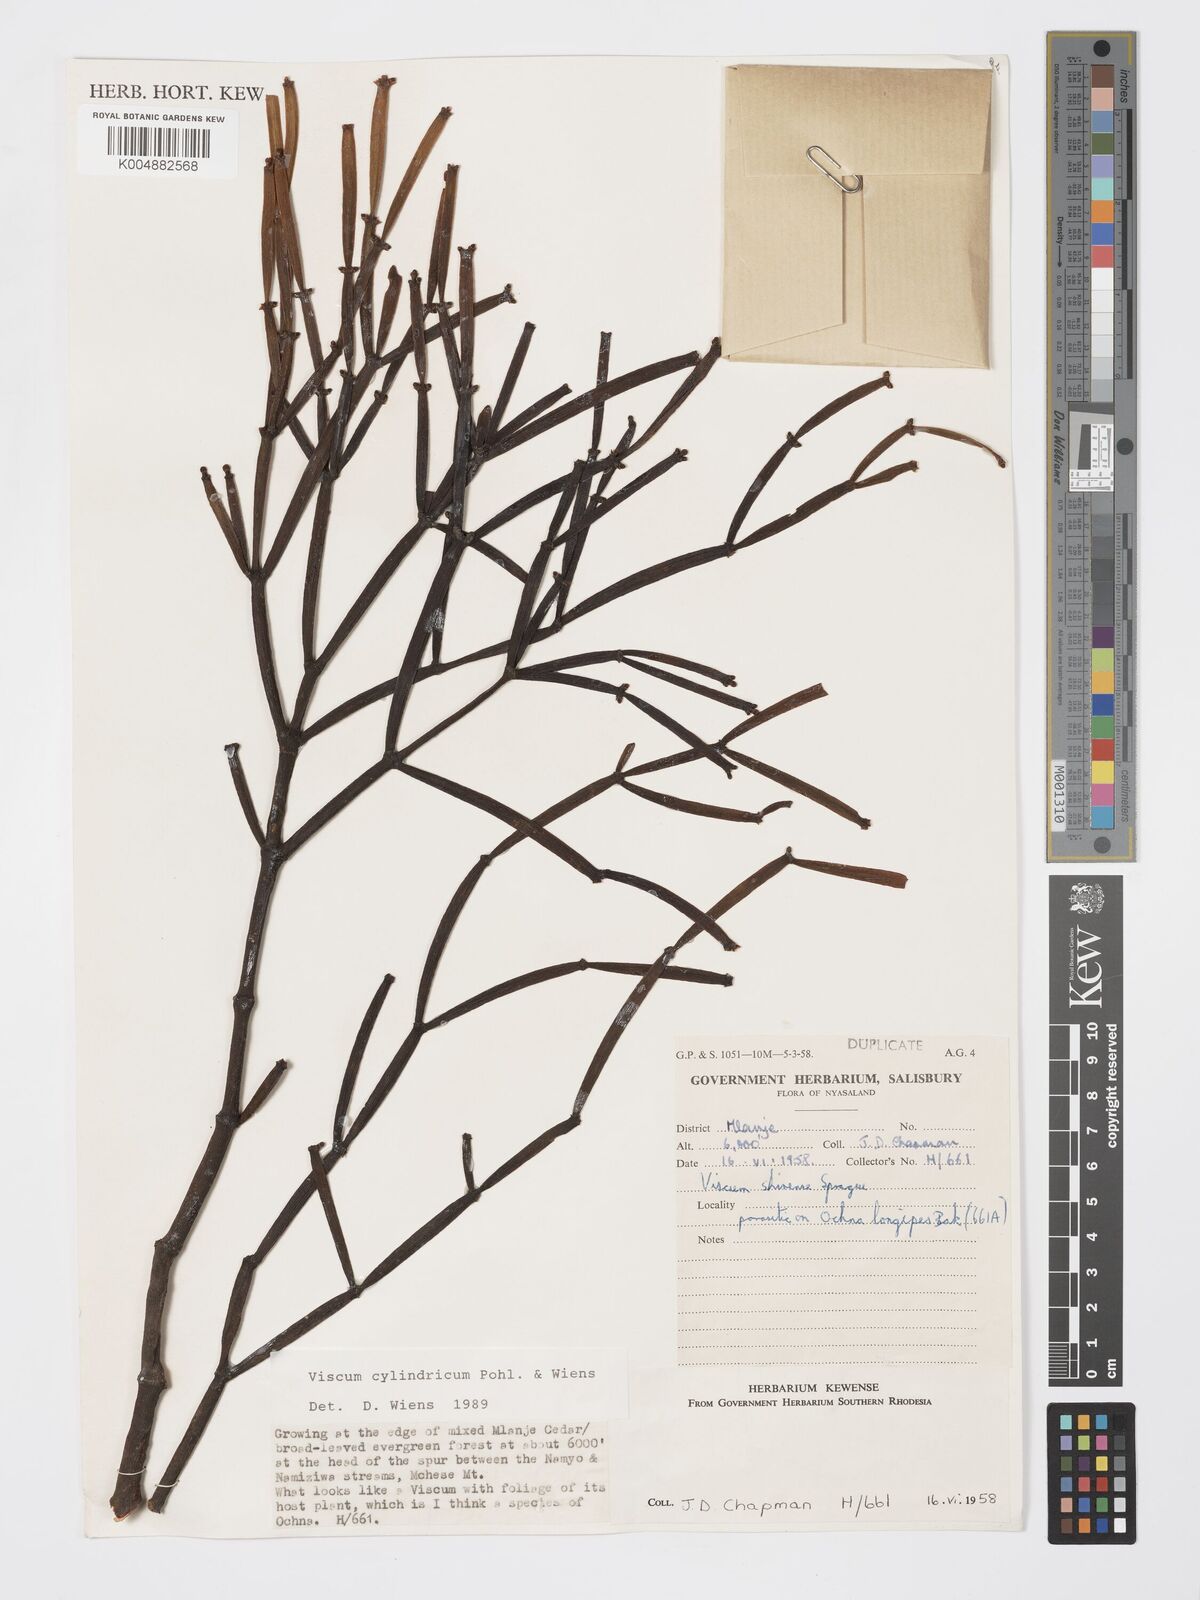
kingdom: Plantae
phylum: Tracheophyta
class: Magnoliopsida
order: Santalales
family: Viscaceae
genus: Viscum
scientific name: Viscum cylindricum
